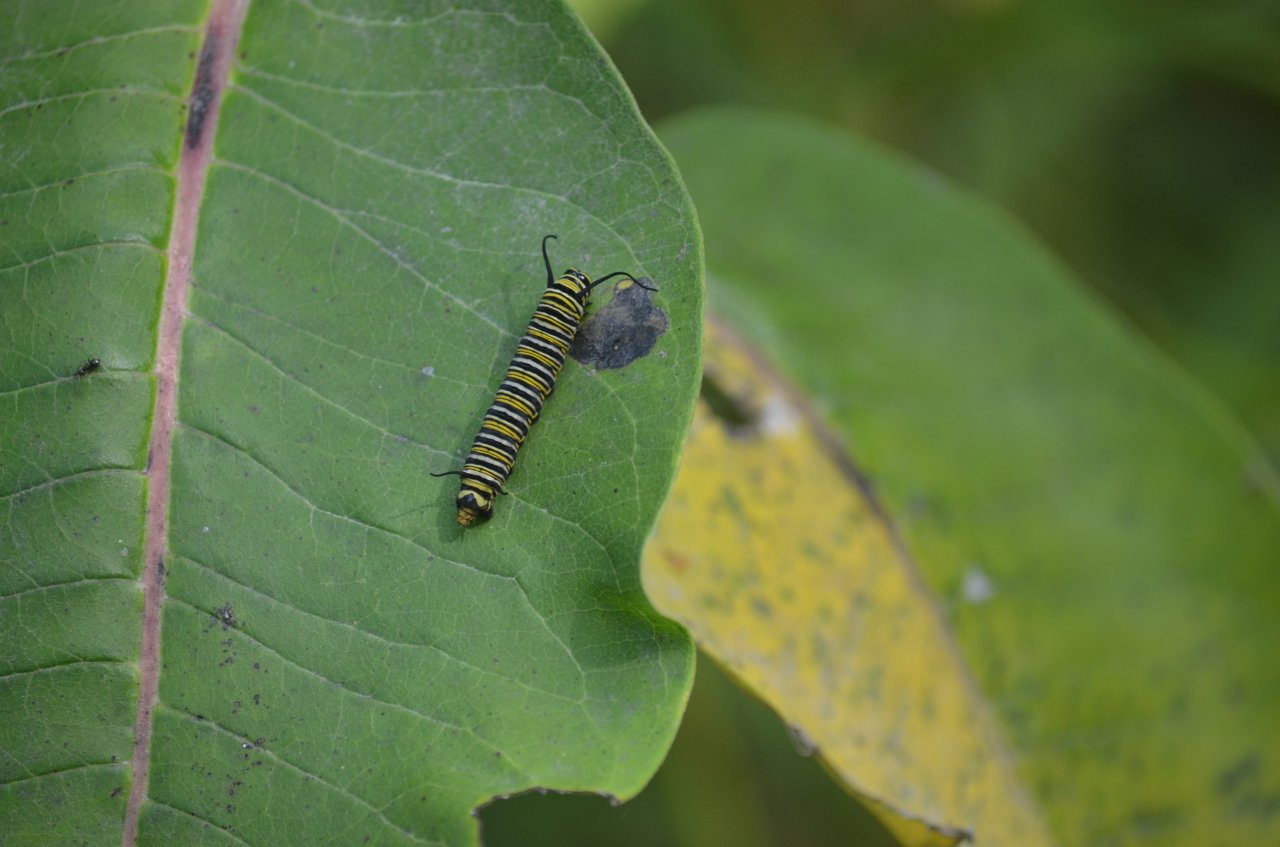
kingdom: Animalia
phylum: Arthropoda
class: Insecta
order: Lepidoptera
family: Nymphalidae
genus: Danaus
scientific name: Danaus plexippus
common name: Monarch
